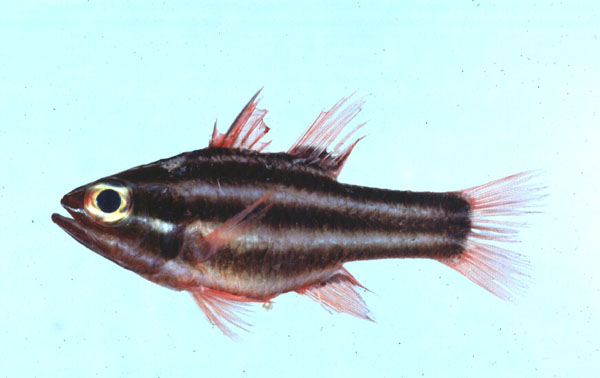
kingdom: Animalia
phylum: Chordata
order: Perciformes
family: Apogonidae
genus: Ostorhinchus
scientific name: Ostorhinchus nigrofasciatus
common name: Blackstripe cardinalfish
